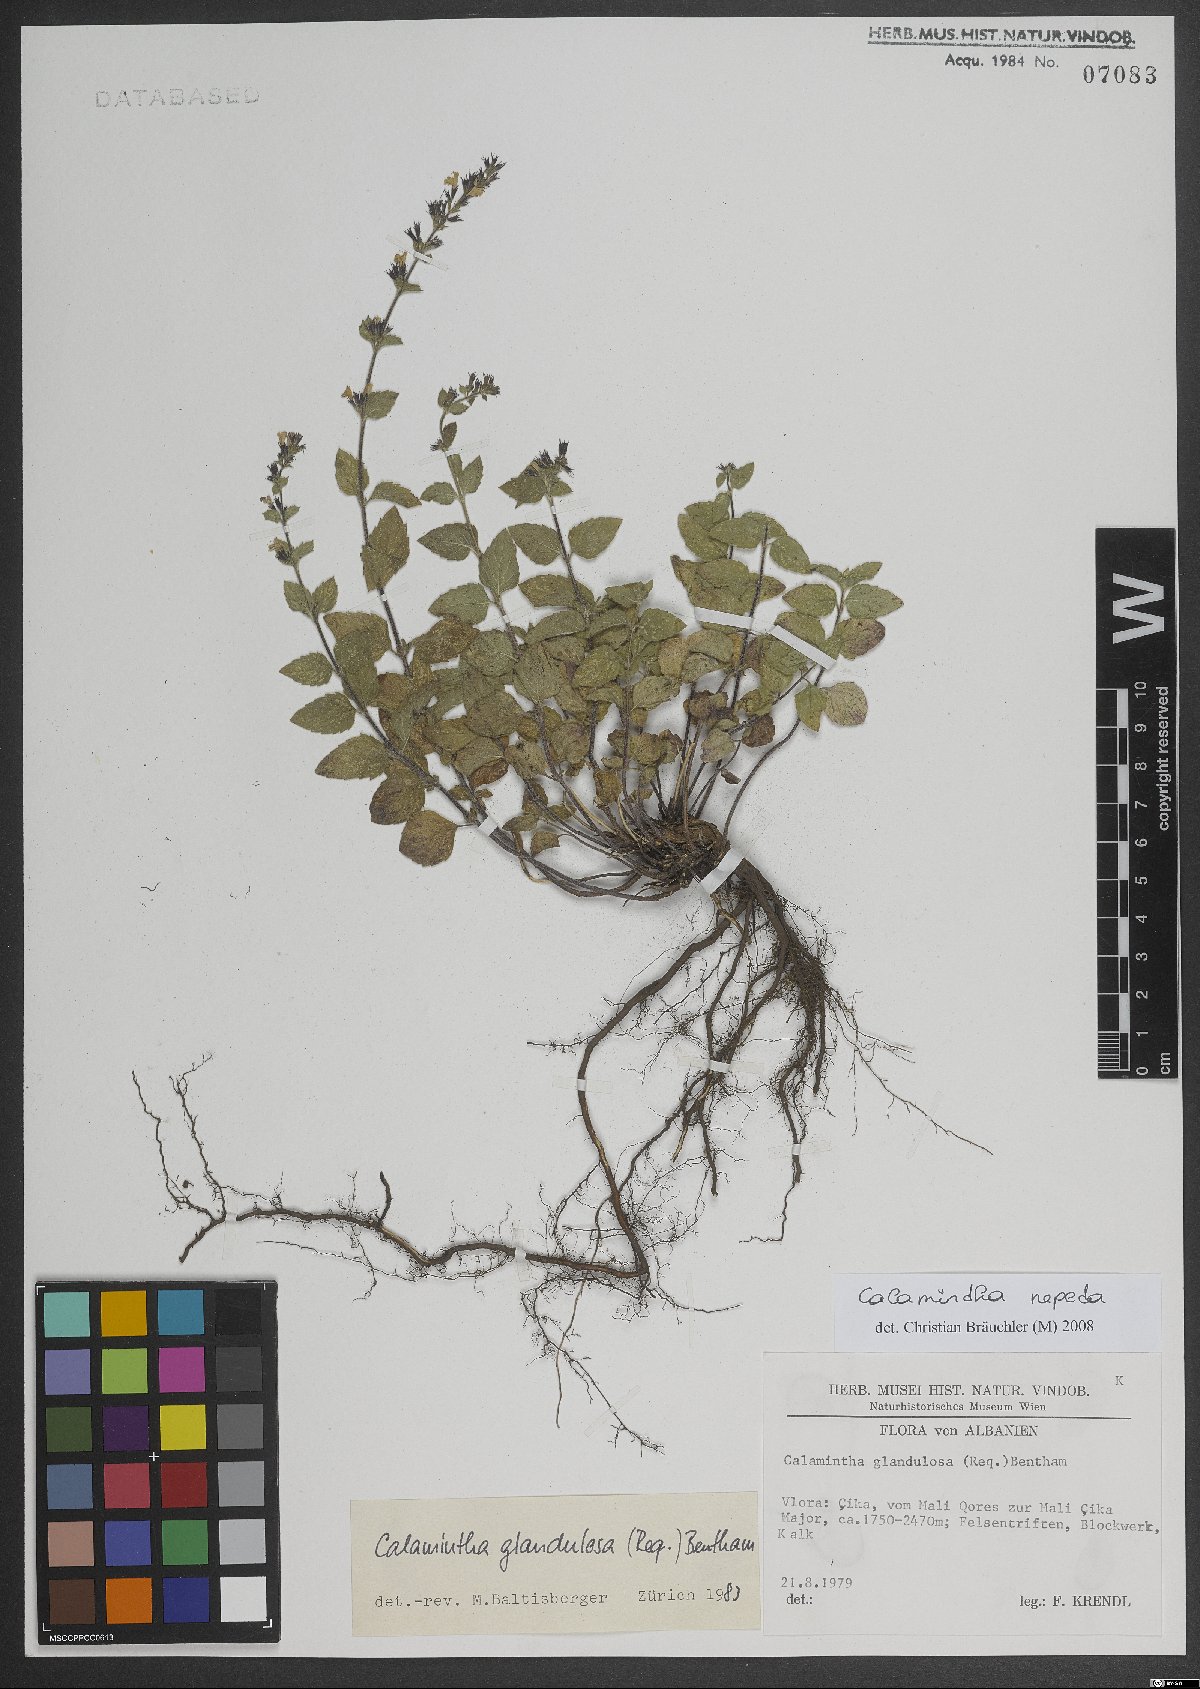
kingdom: Plantae
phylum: Tracheophyta
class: Magnoliopsida
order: Lamiales
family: Lamiaceae
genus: Clinopodium
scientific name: Clinopodium nepeta
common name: Lesser calamint
